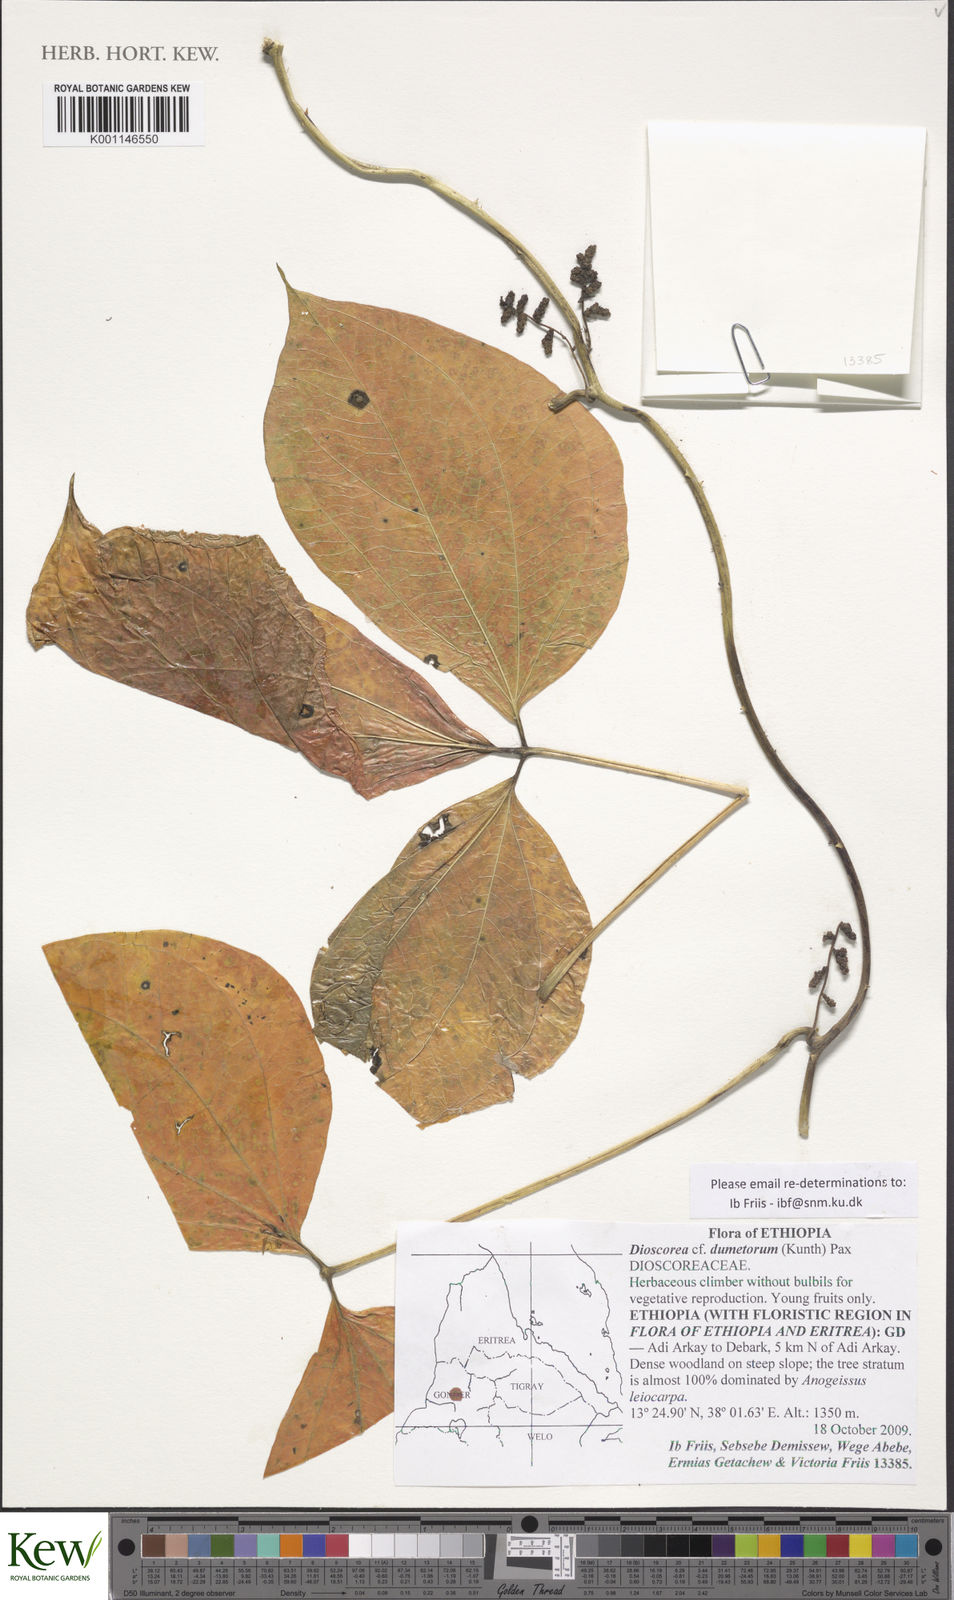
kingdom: Plantae
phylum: Tracheophyta
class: Liliopsida
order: Dioscoreales
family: Dioscoreaceae
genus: Dioscorea
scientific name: Dioscorea dumetorum
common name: African bitter yam
